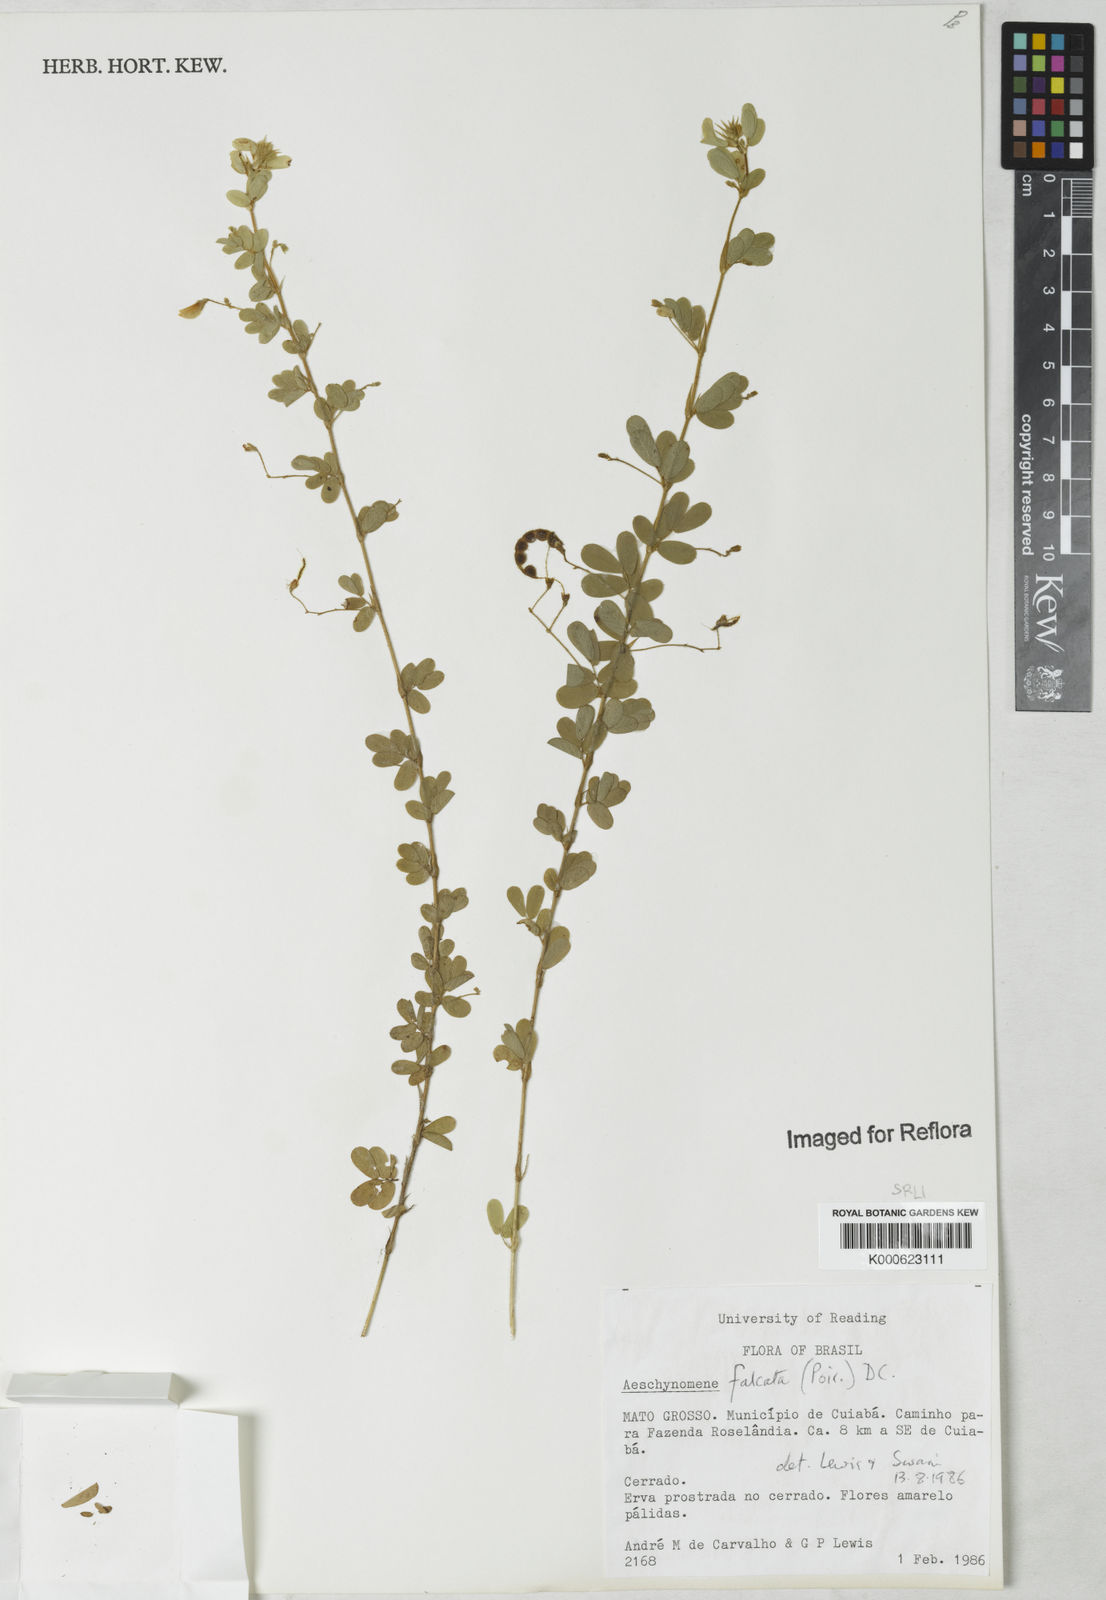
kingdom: Plantae
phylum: Tracheophyta
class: Magnoliopsida
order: Fabales
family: Fabaceae
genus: Ctenodon
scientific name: Ctenodon falcatus
